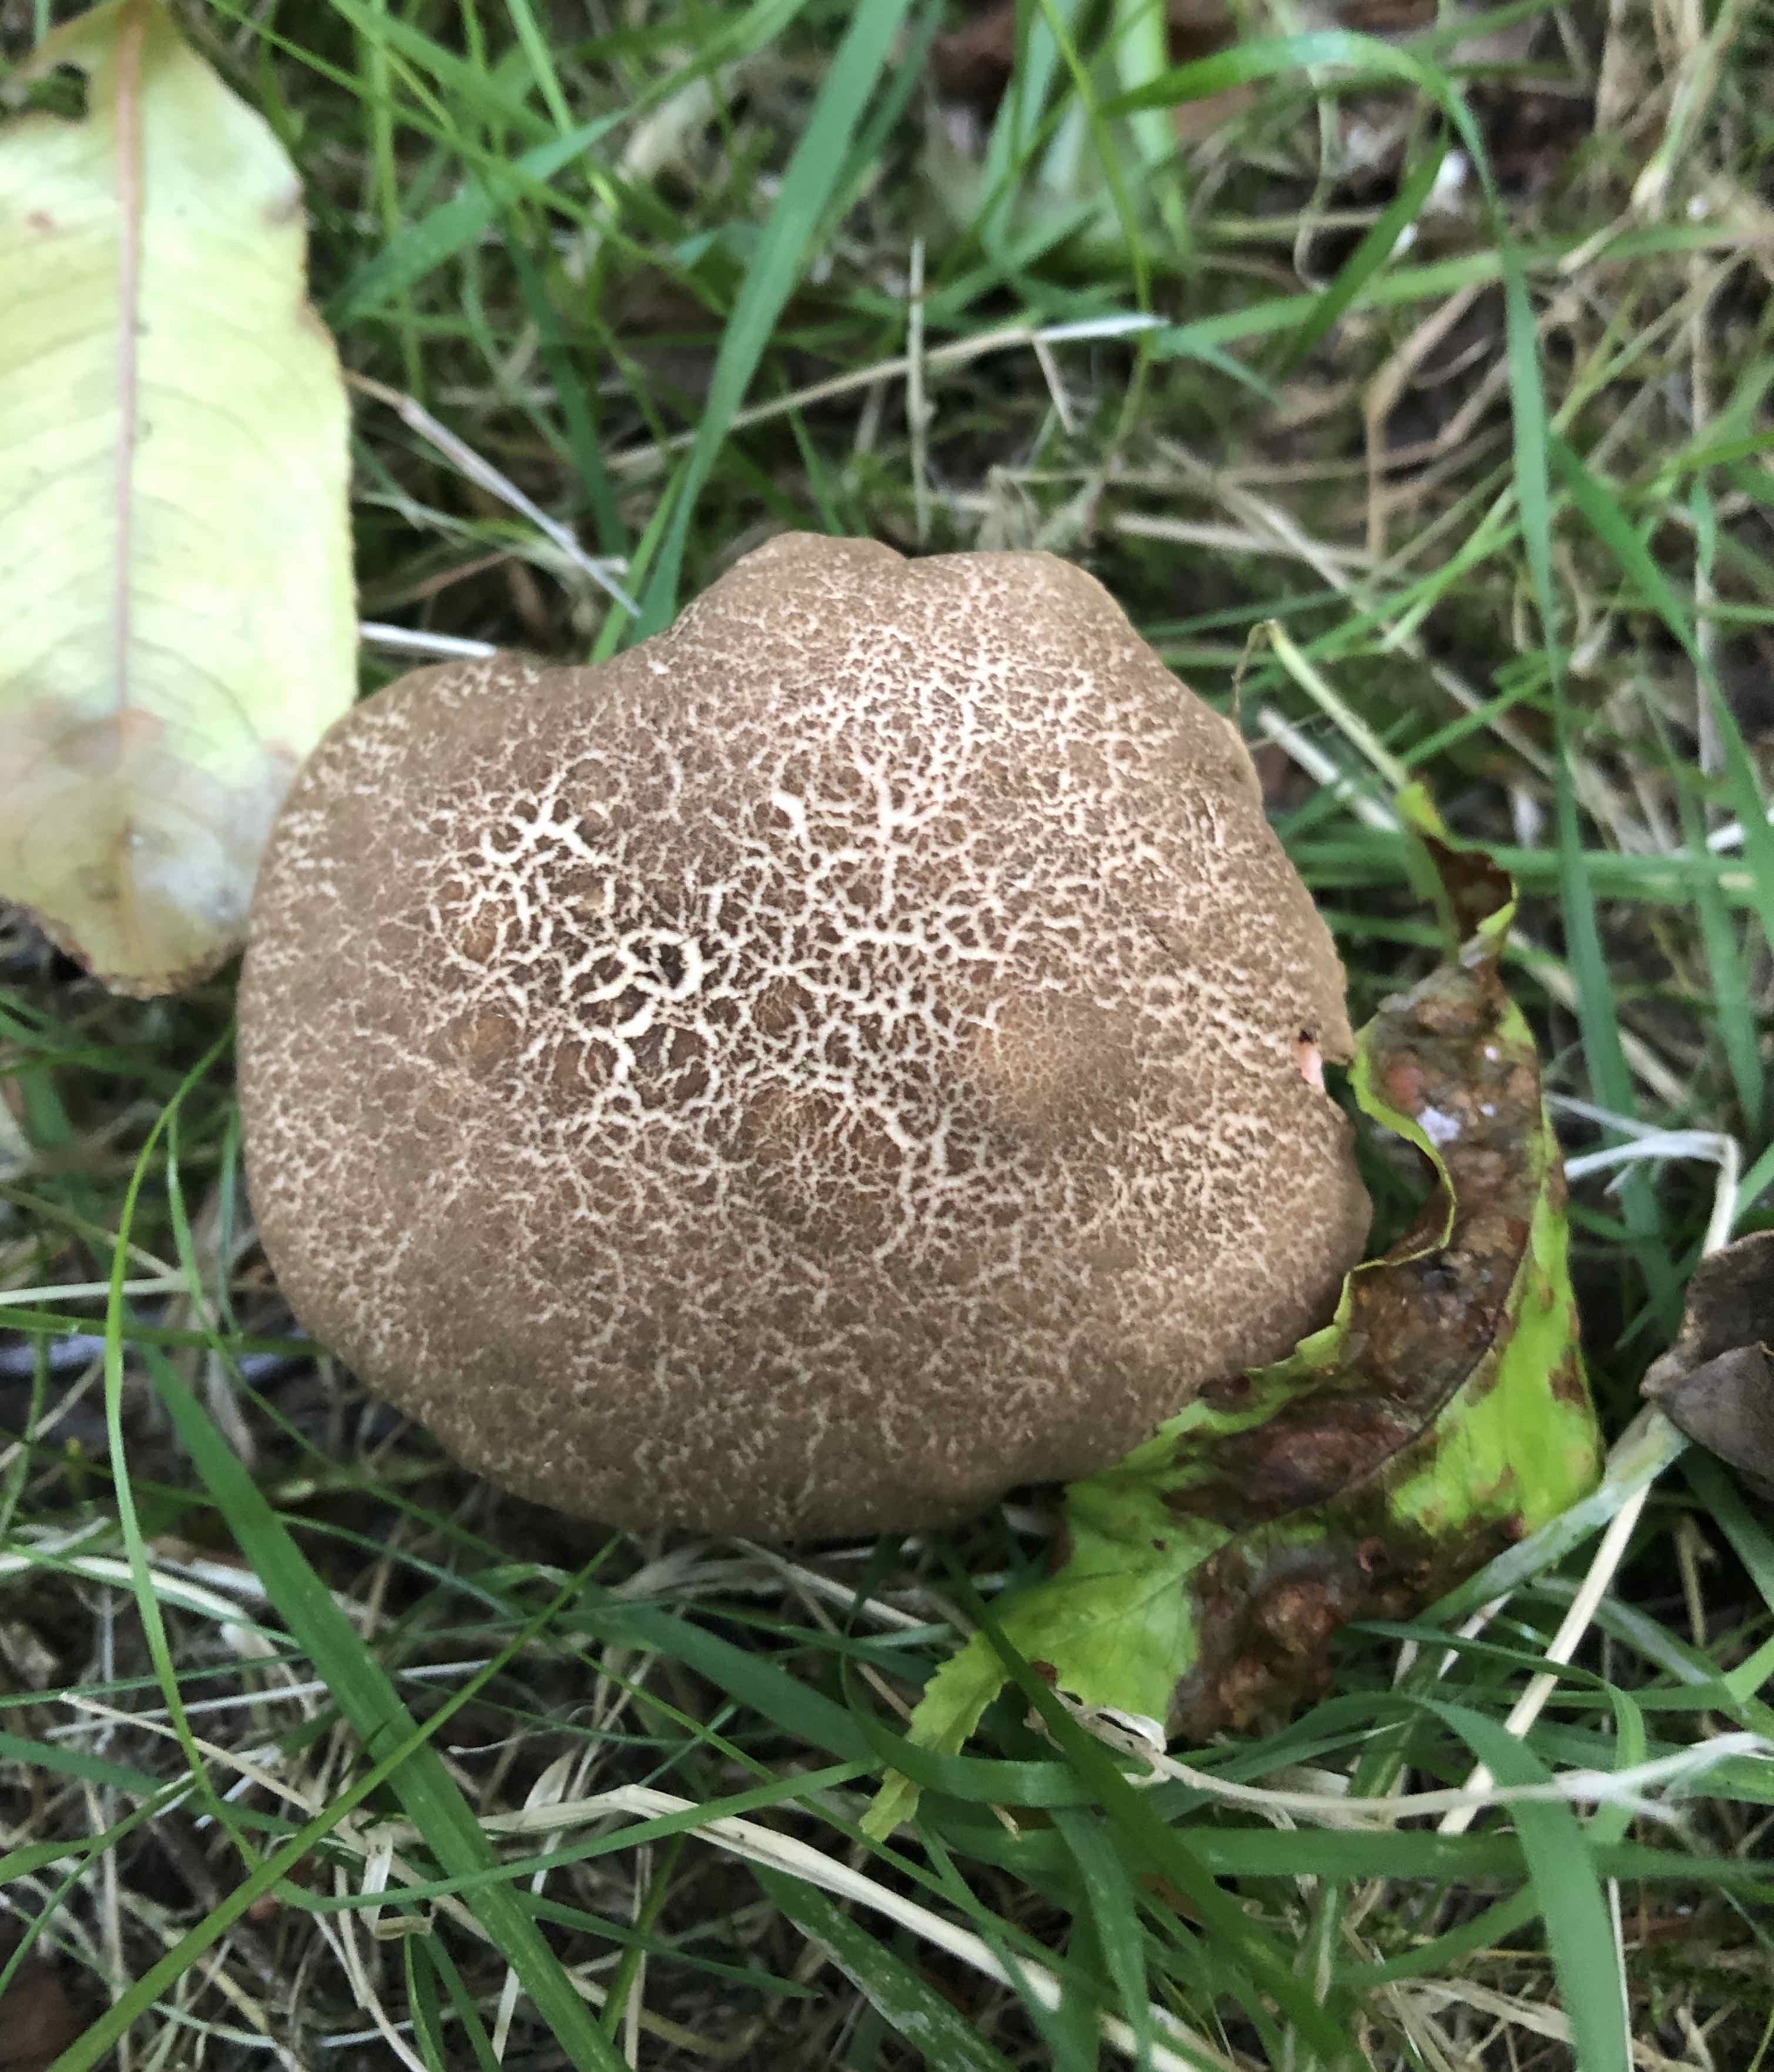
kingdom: Fungi
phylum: Basidiomycota
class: Agaricomycetes
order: Boletales
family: Boletaceae
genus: Xerocomellus
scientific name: Xerocomellus chrysenteron
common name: rødsprukken rørhat
